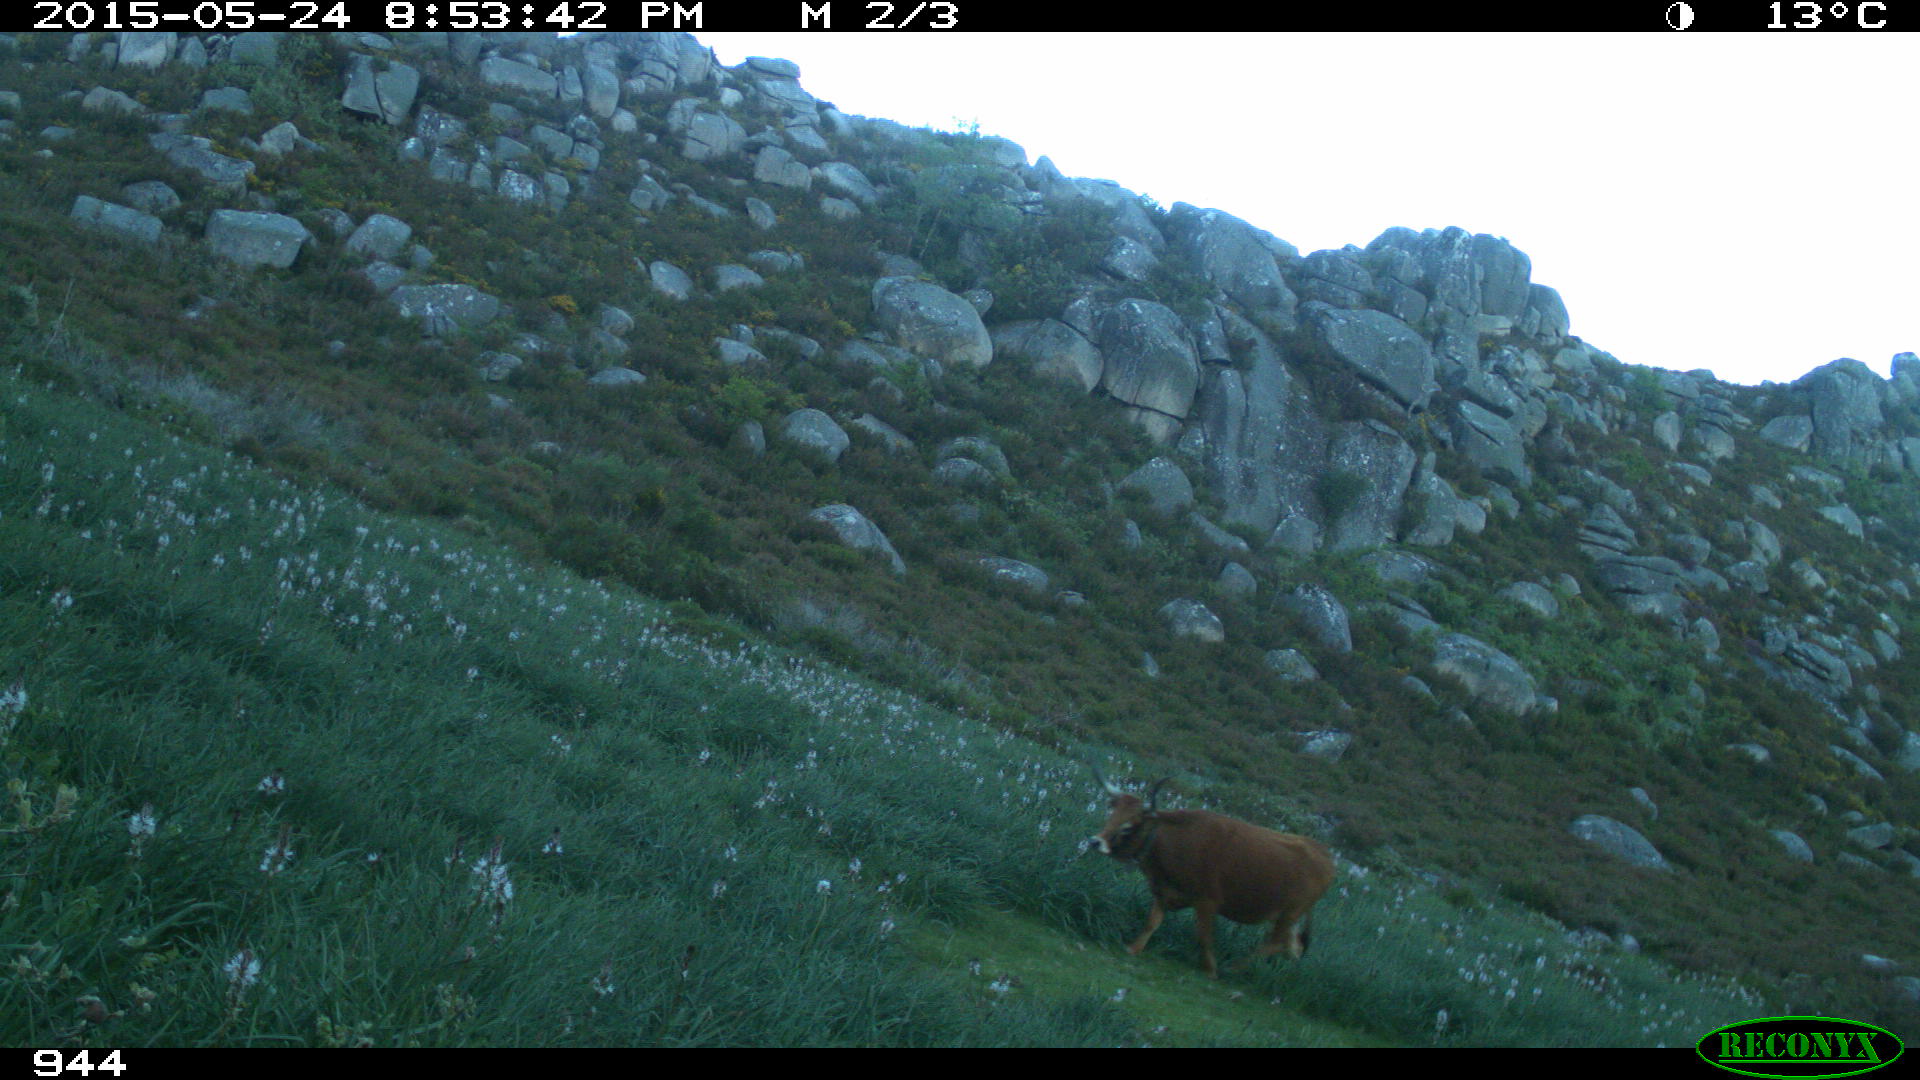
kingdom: Animalia
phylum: Chordata
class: Mammalia
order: Artiodactyla
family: Bovidae
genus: Bos
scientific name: Bos taurus
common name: Domesticated cattle
